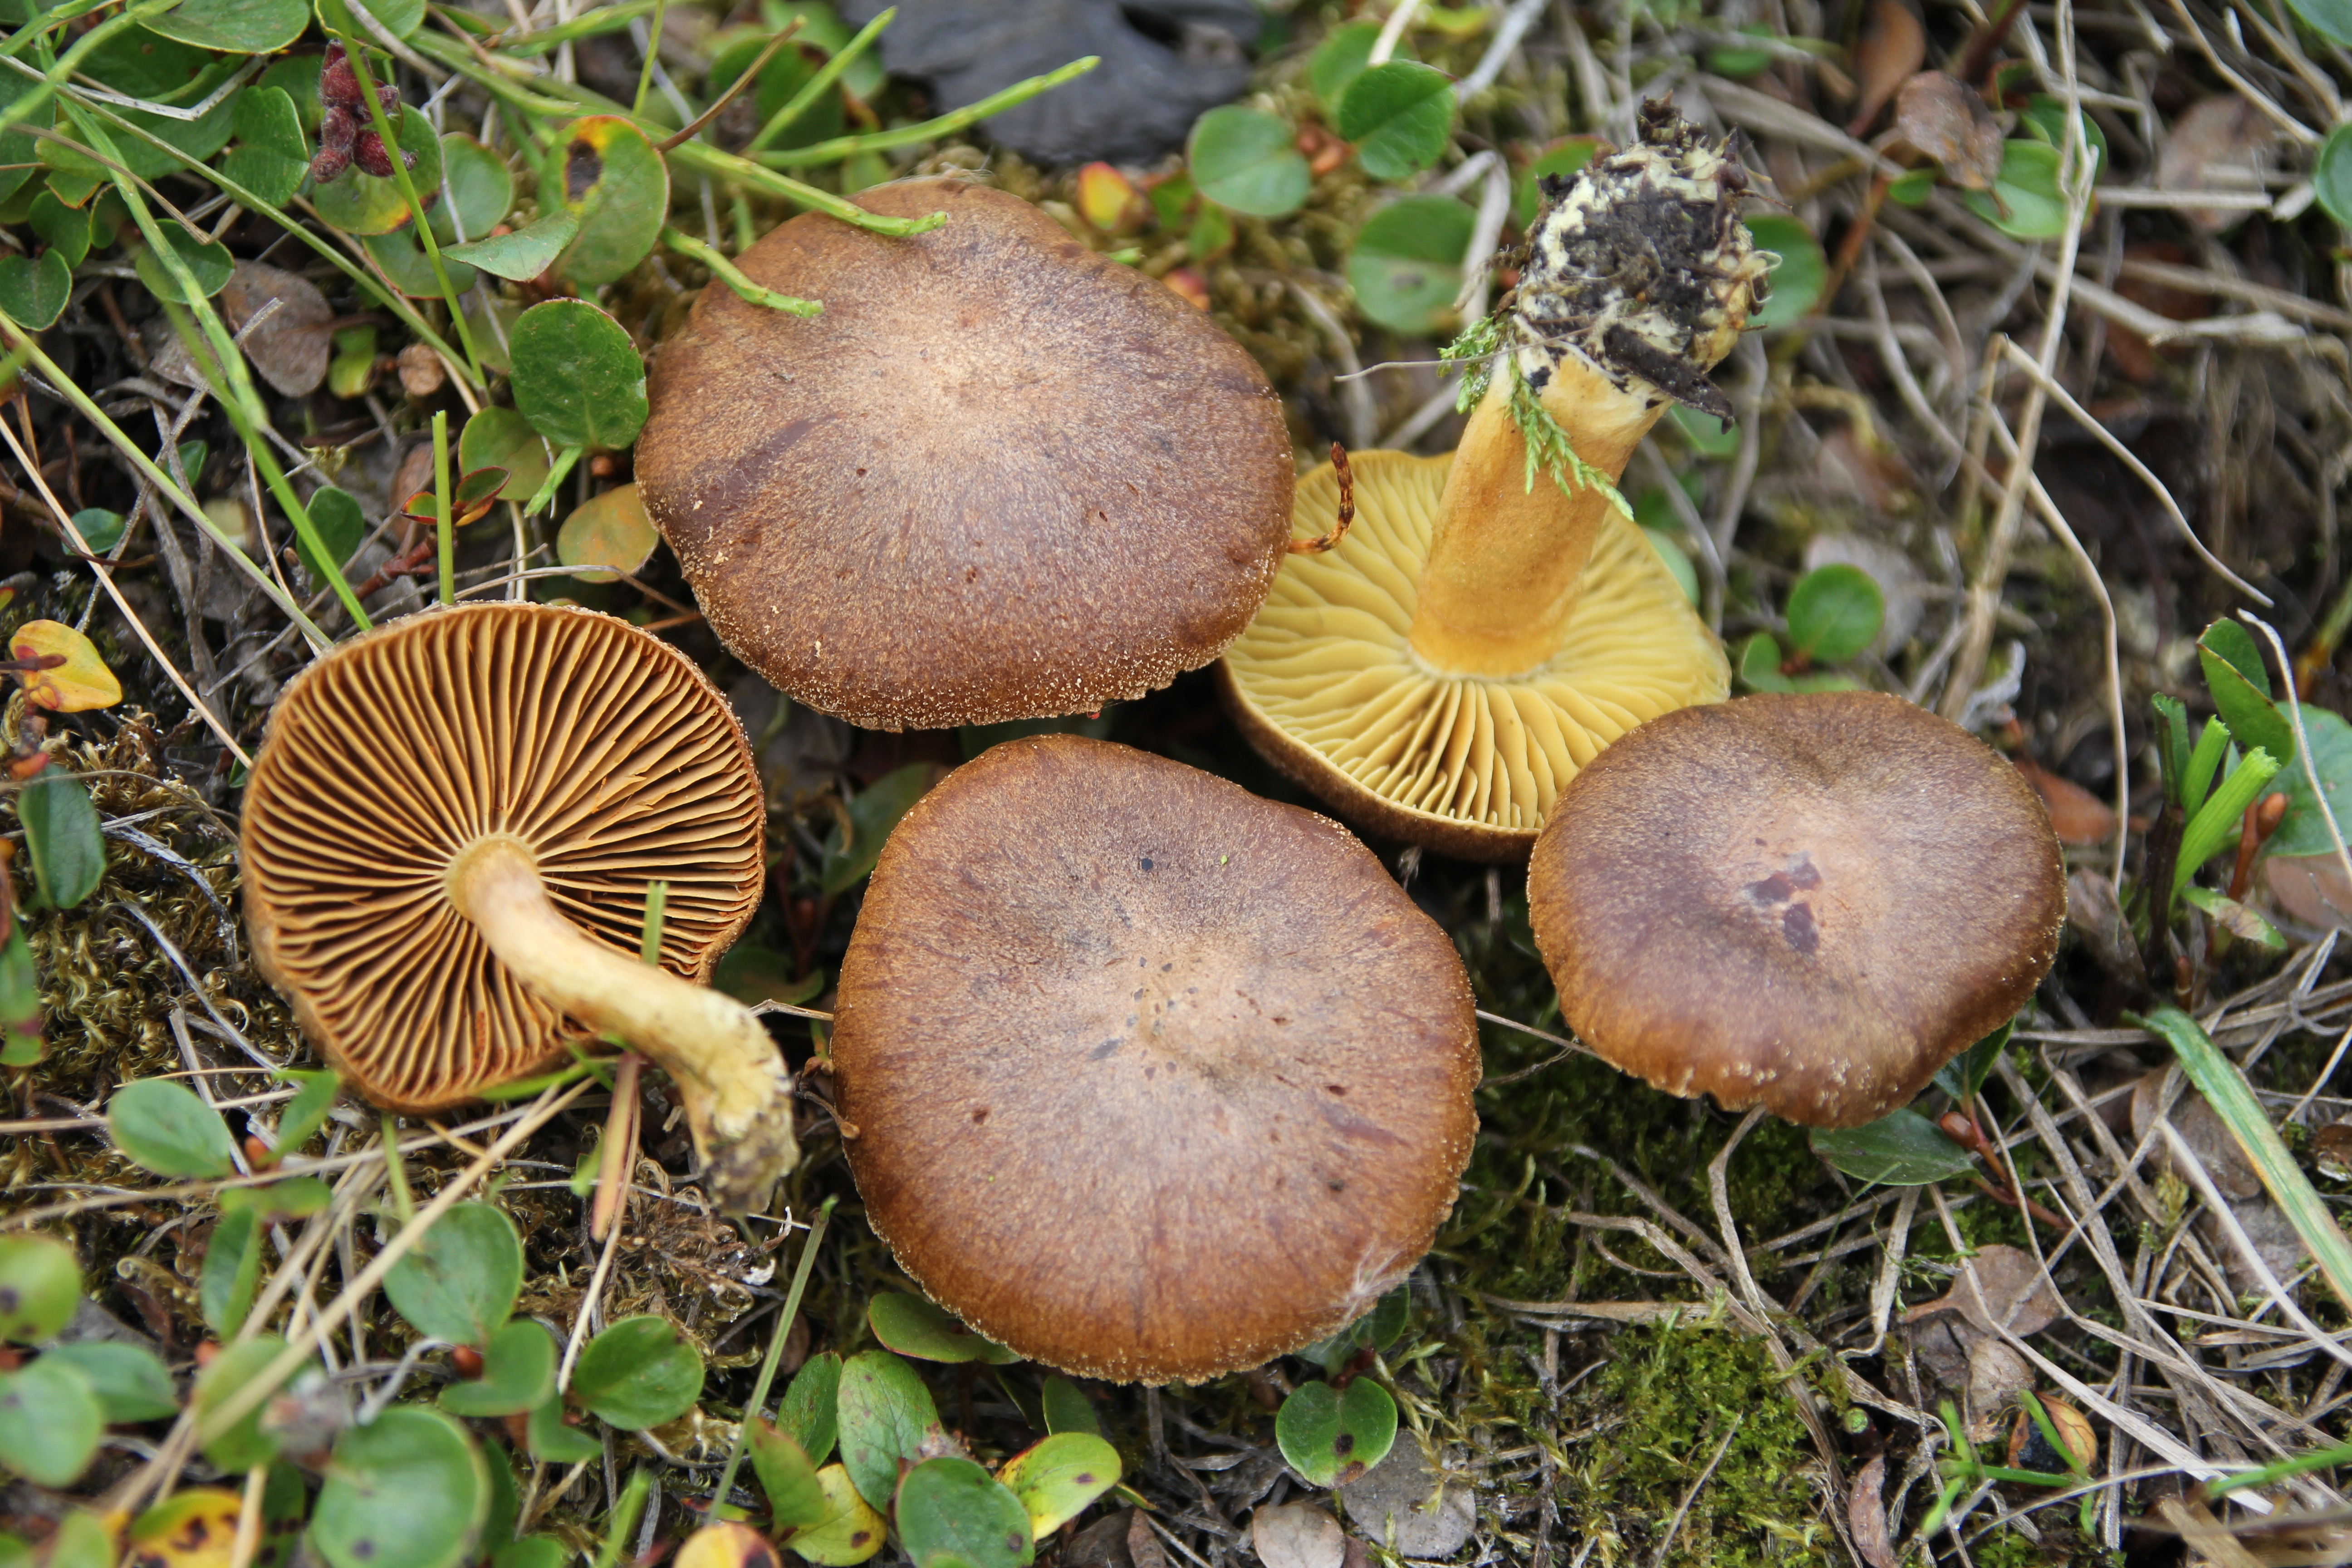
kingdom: Fungi
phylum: Basidiomycota
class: Agaricomycetes
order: Agaricales
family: Cortinariaceae
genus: Cortinarius
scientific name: Cortinarius cinnamomeoluteus
